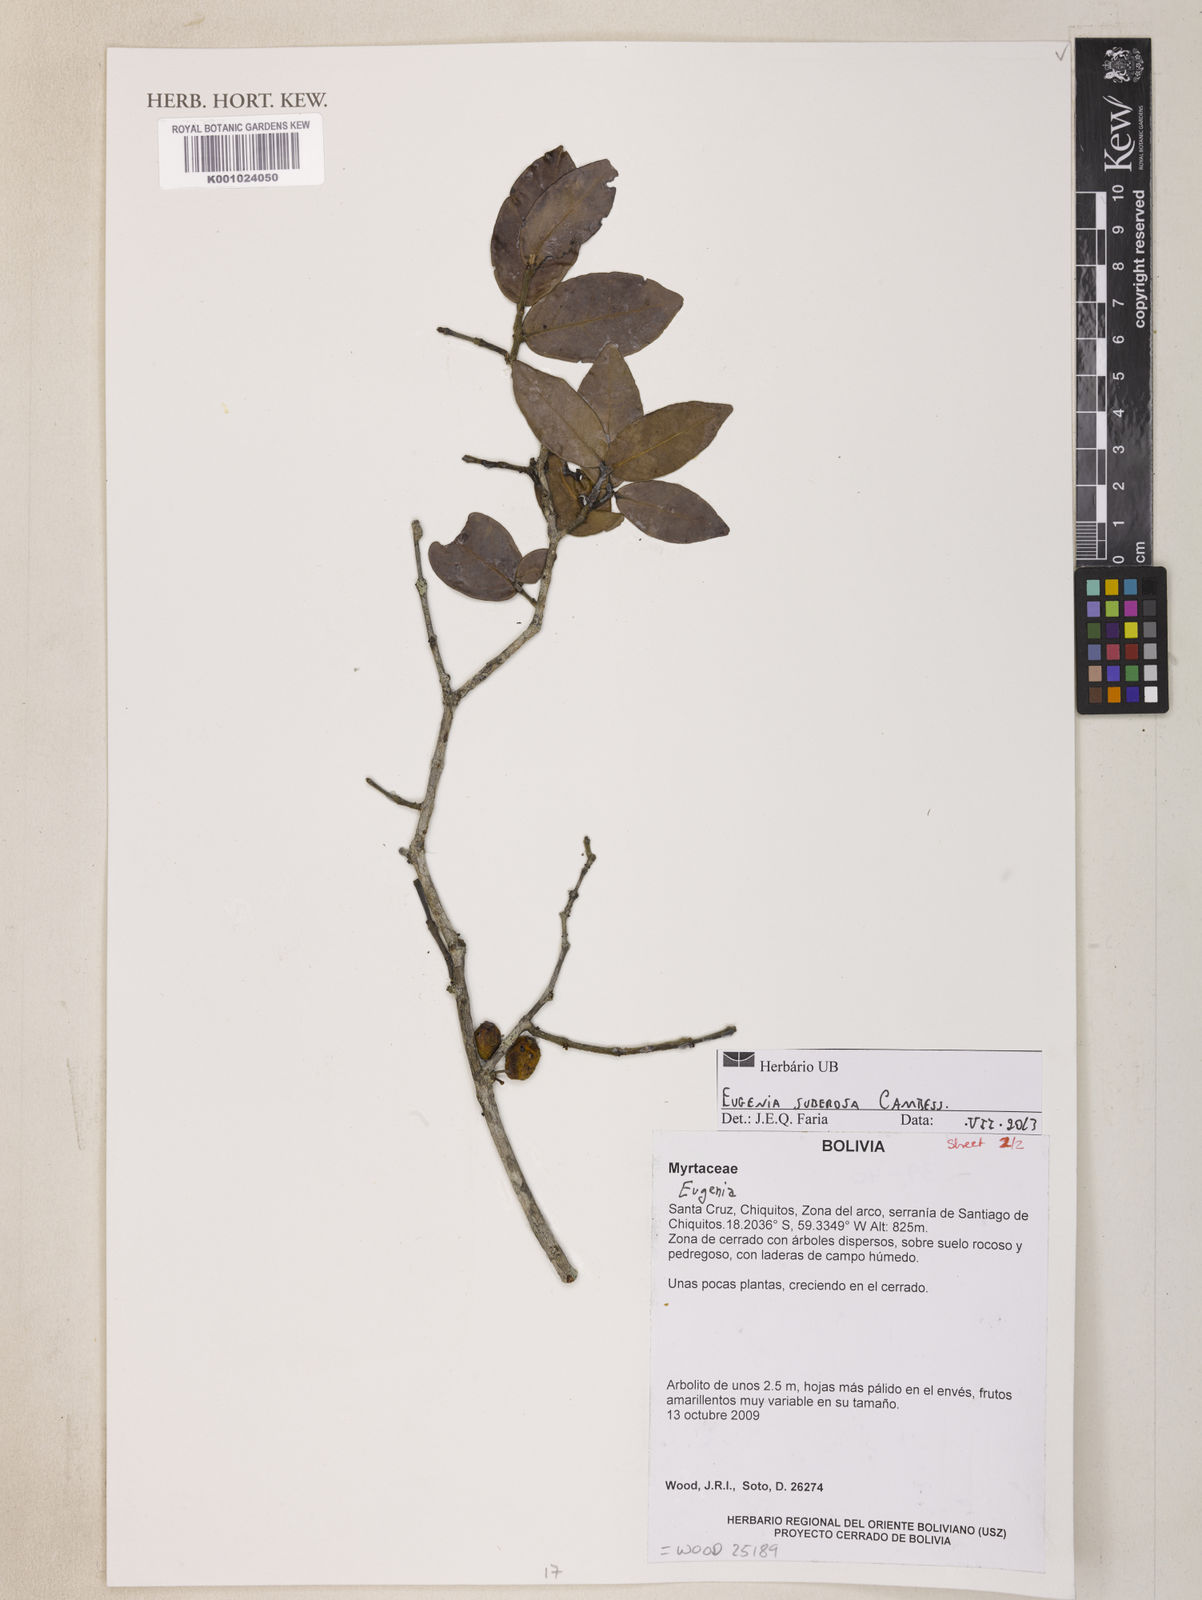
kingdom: Plantae
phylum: Tracheophyta
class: Magnoliopsida
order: Myrtales
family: Myrtaceae
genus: Eugenia
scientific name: Eugenia suberosa
